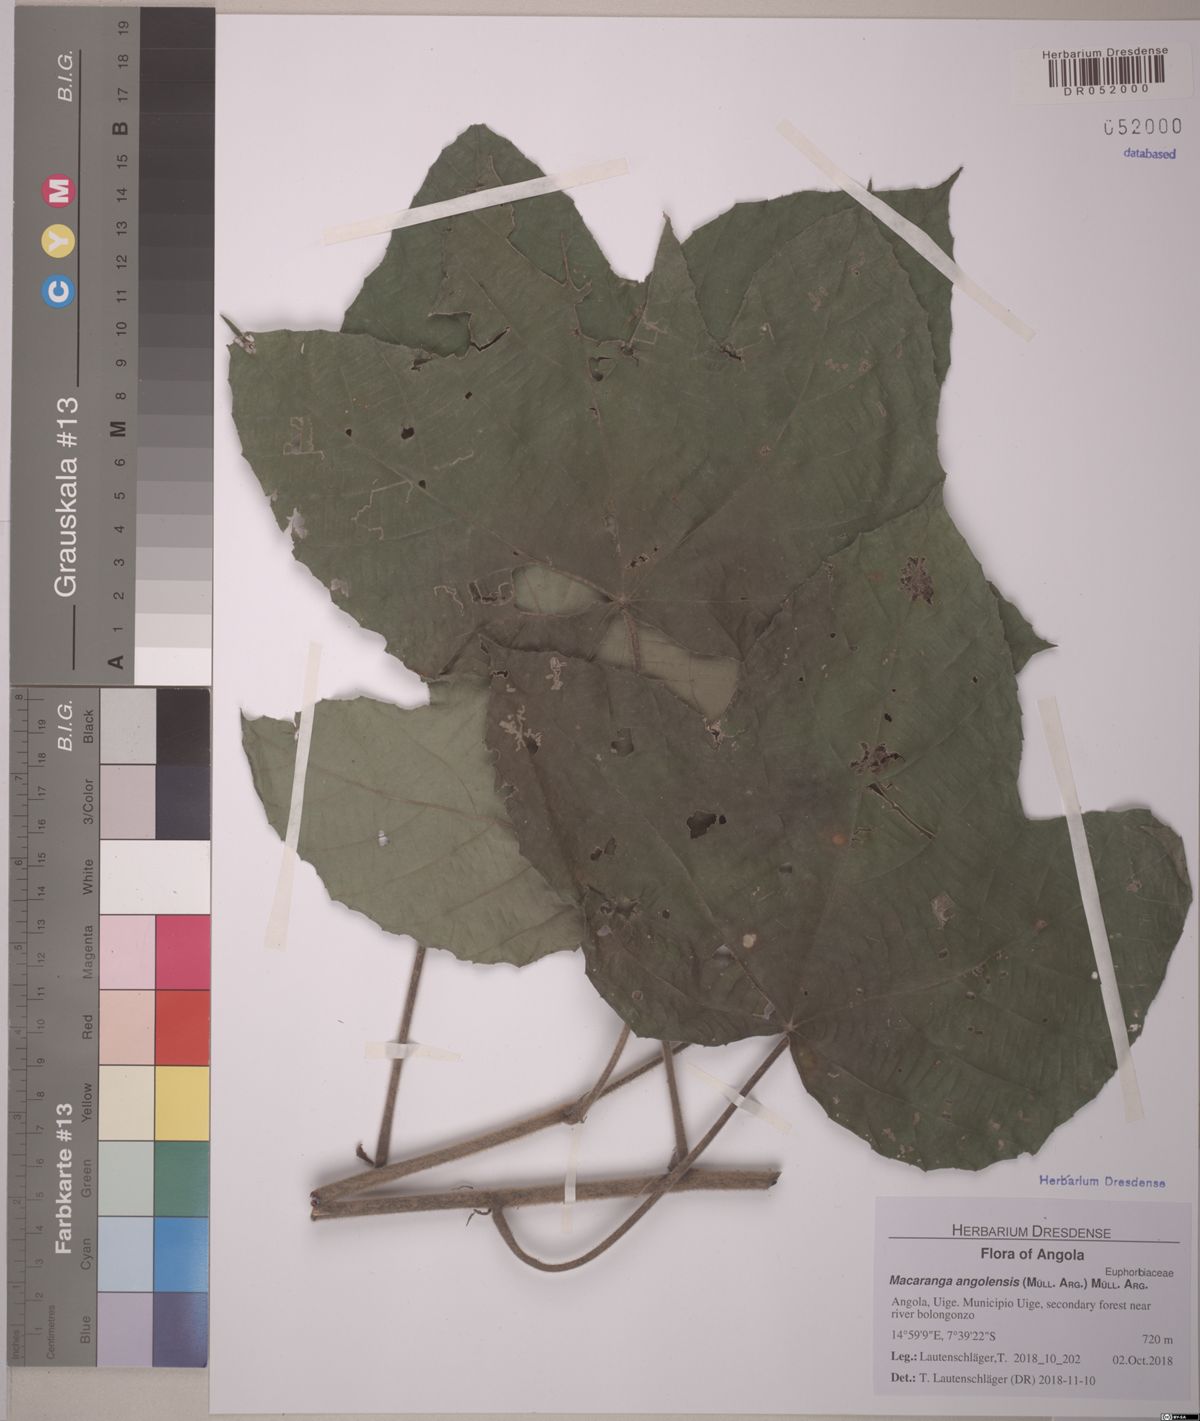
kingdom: Plantae
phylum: Tracheophyta
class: Magnoliopsida
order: Malpighiales
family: Euphorbiaceae
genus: Macaranga
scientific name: Macaranga angolensis
